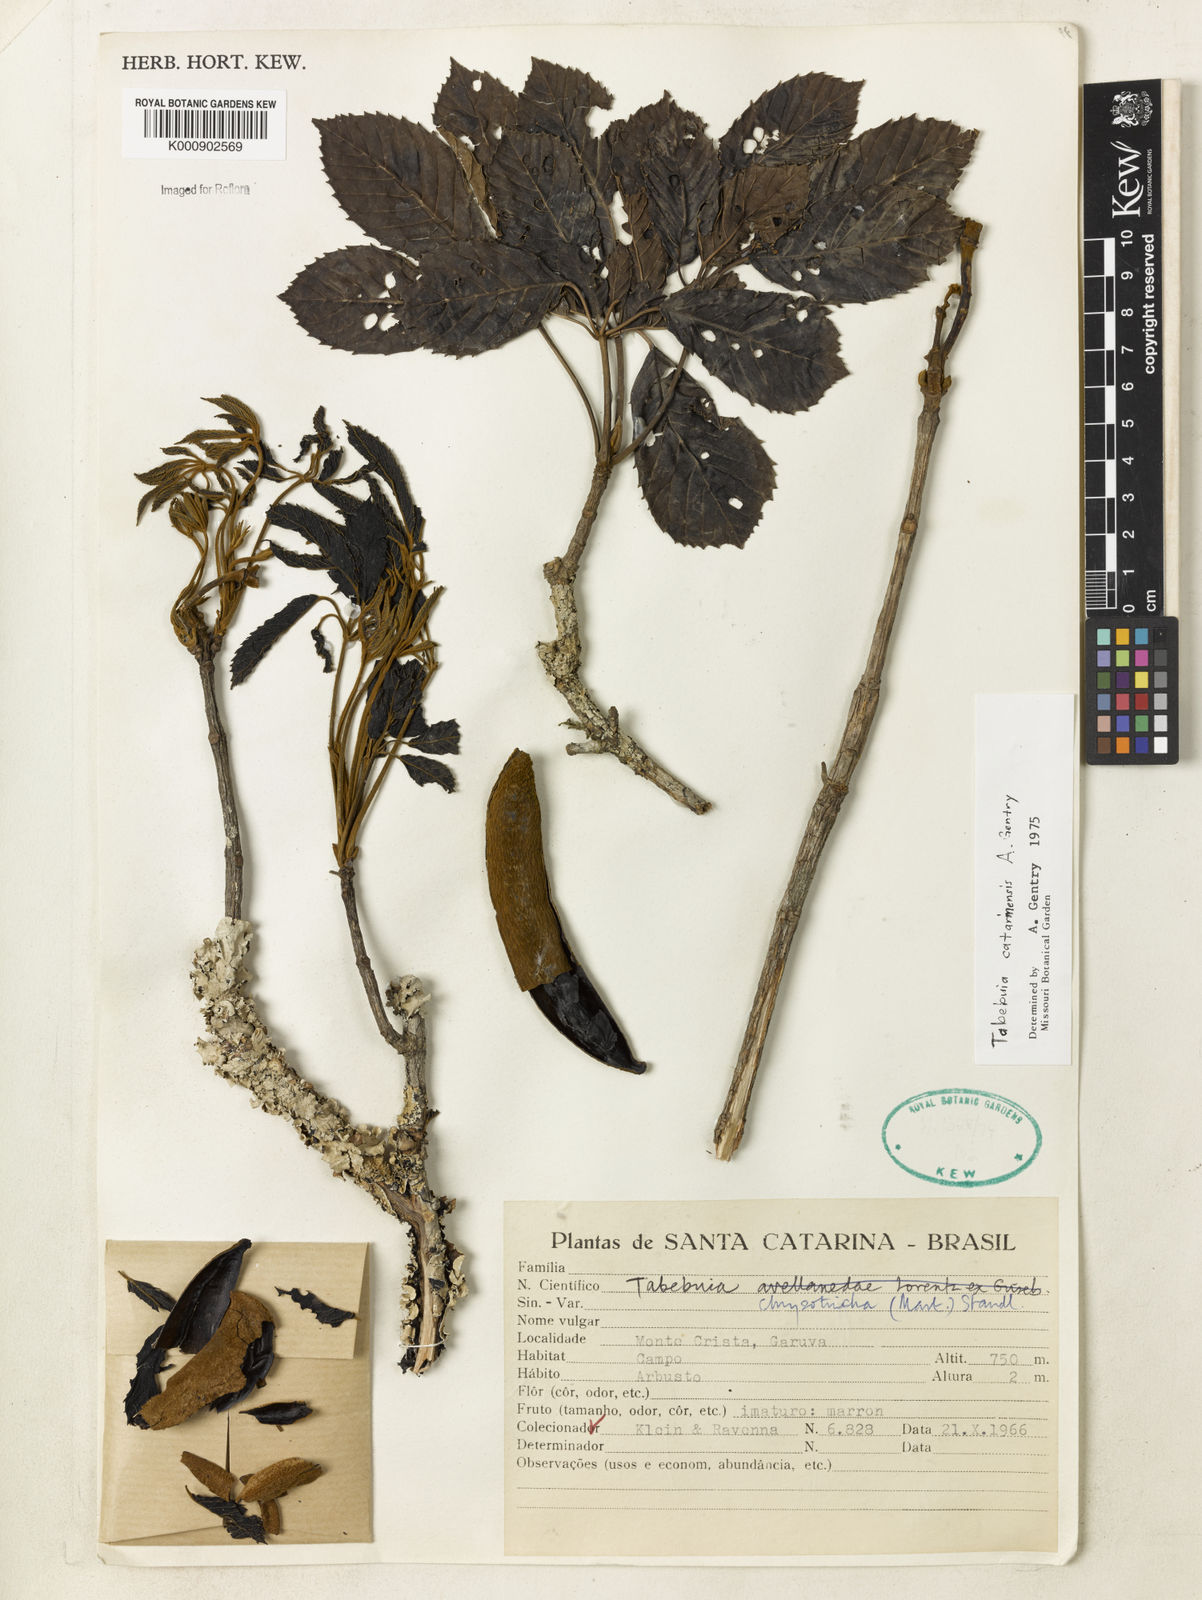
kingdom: Plantae
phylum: Tracheophyta
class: Magnoliopsida
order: Lamiales
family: Bignoniaceae
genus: Handroanthus
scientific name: Handroanthus chrysotrichus
